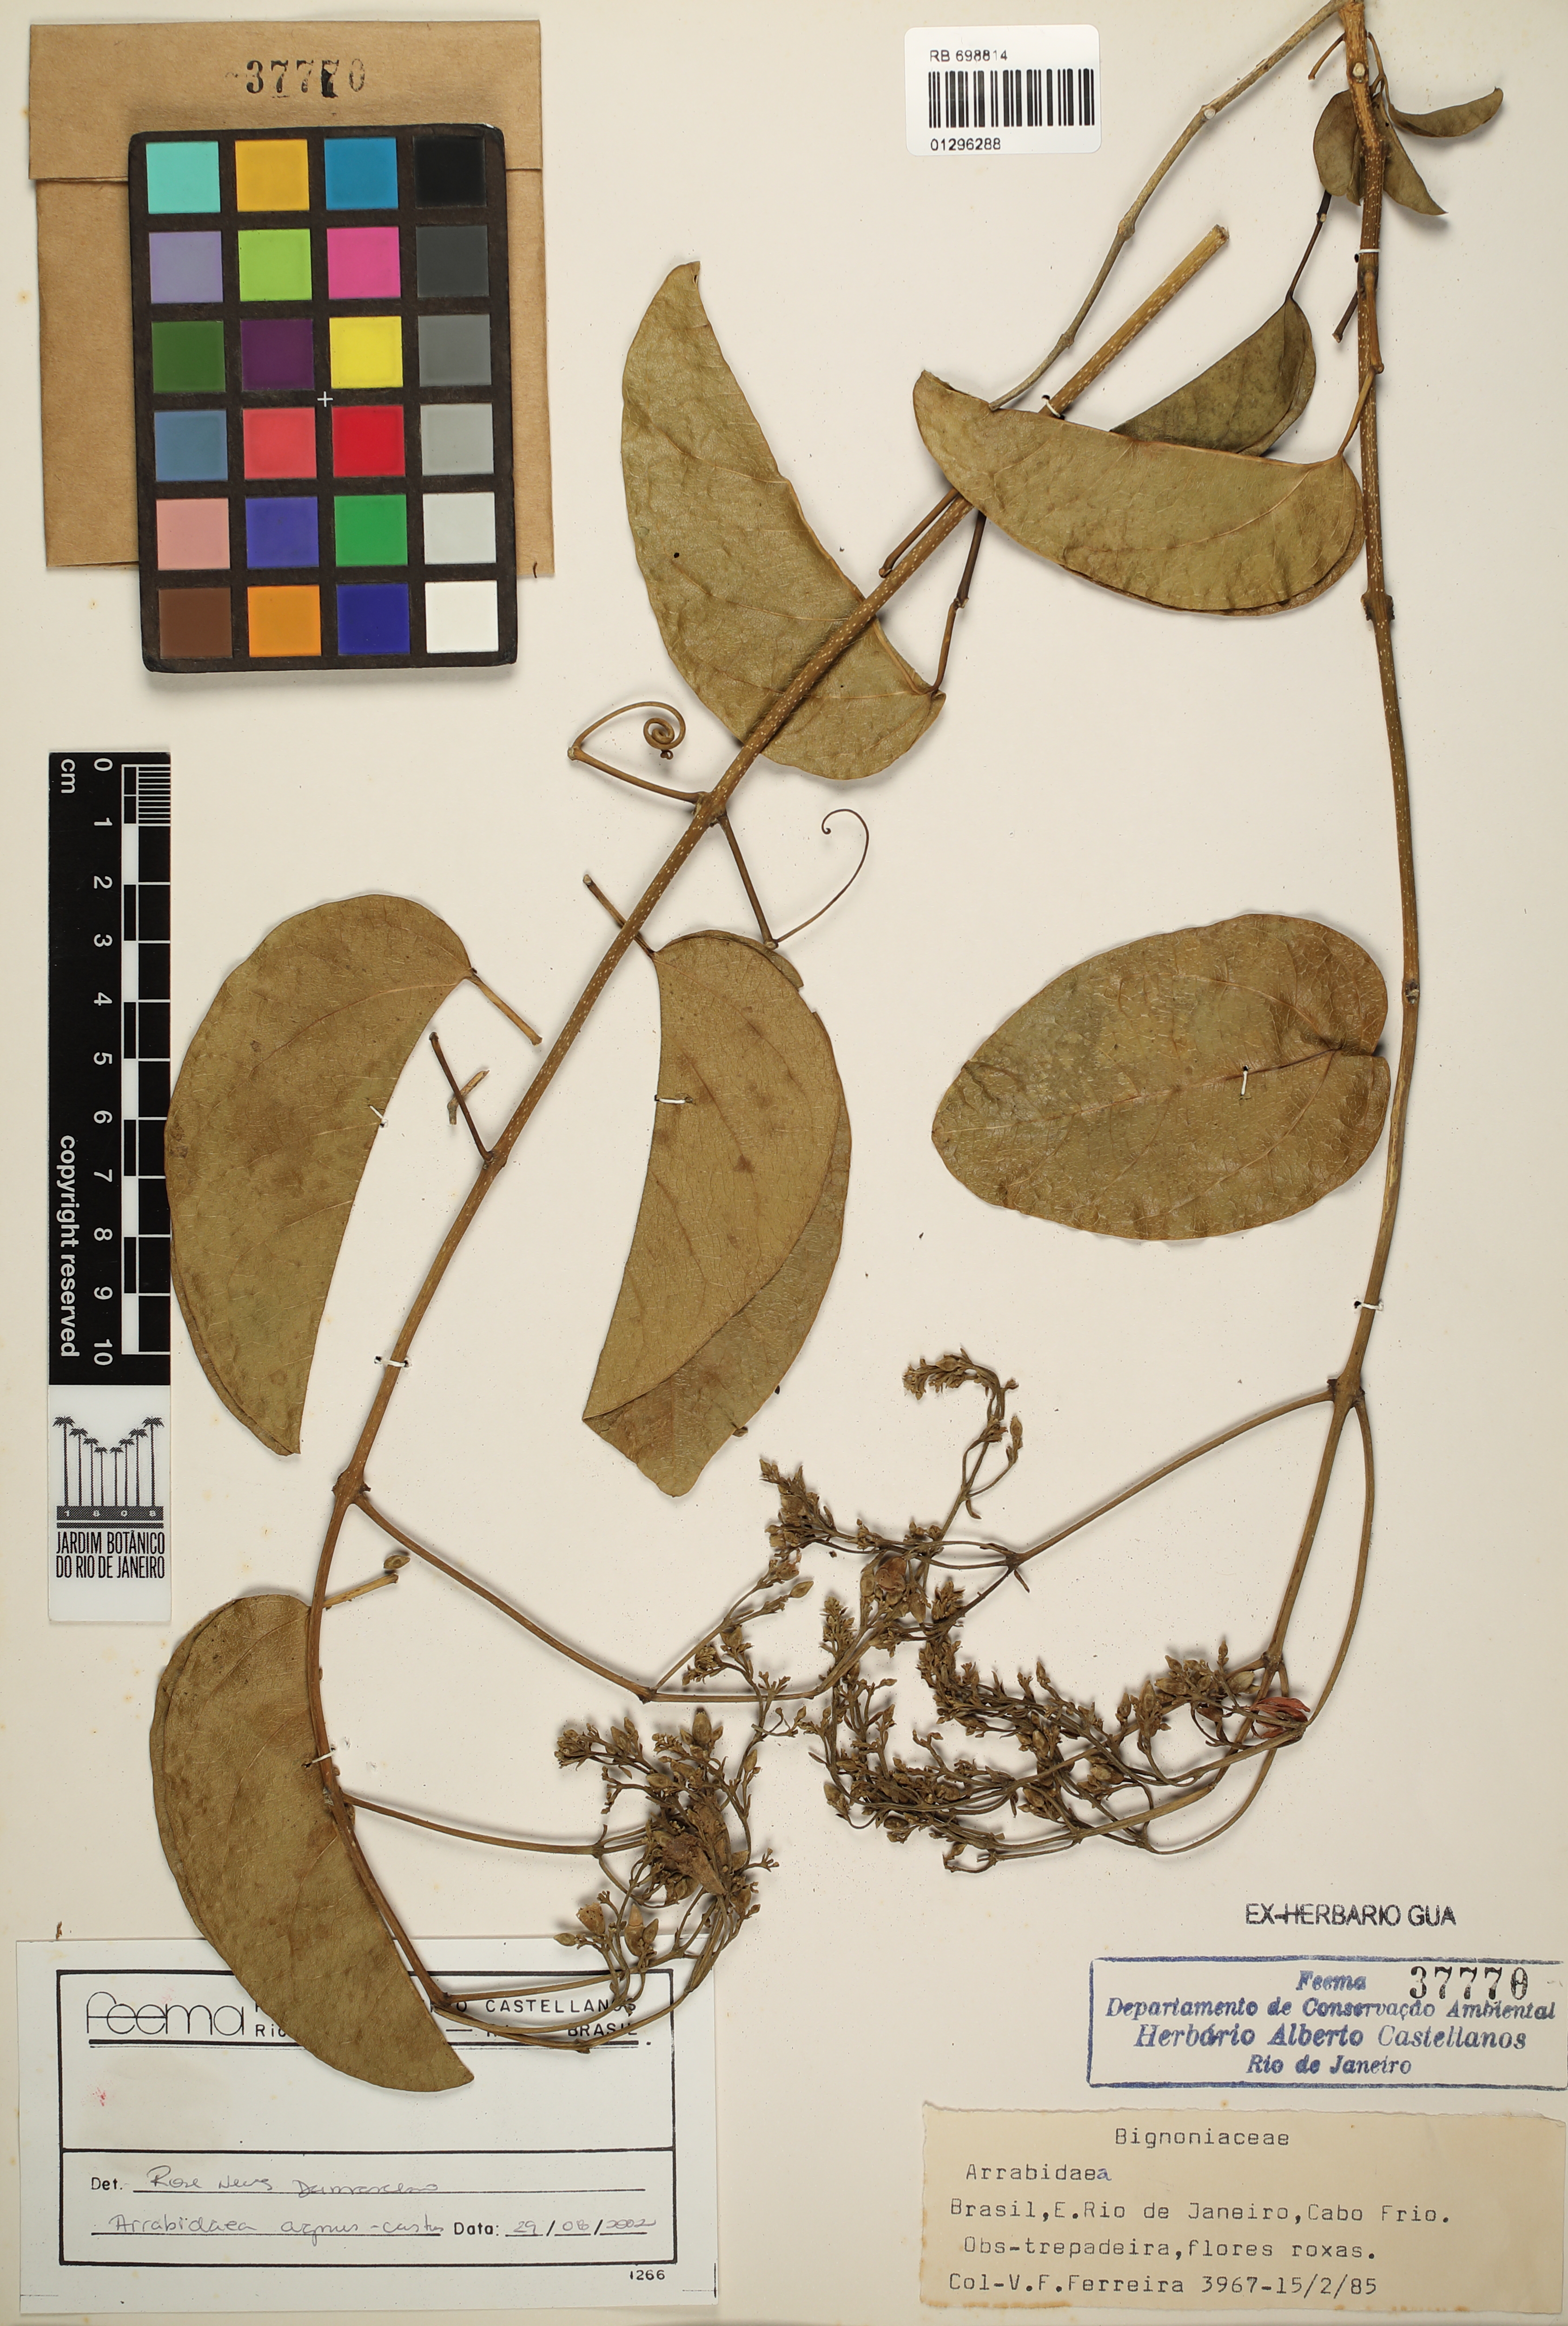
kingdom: Plantae
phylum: Tracheophyta
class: Magnoliopsida
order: Lamiales
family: Bignoniaceae
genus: Fridericia
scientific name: Fridericia rego
